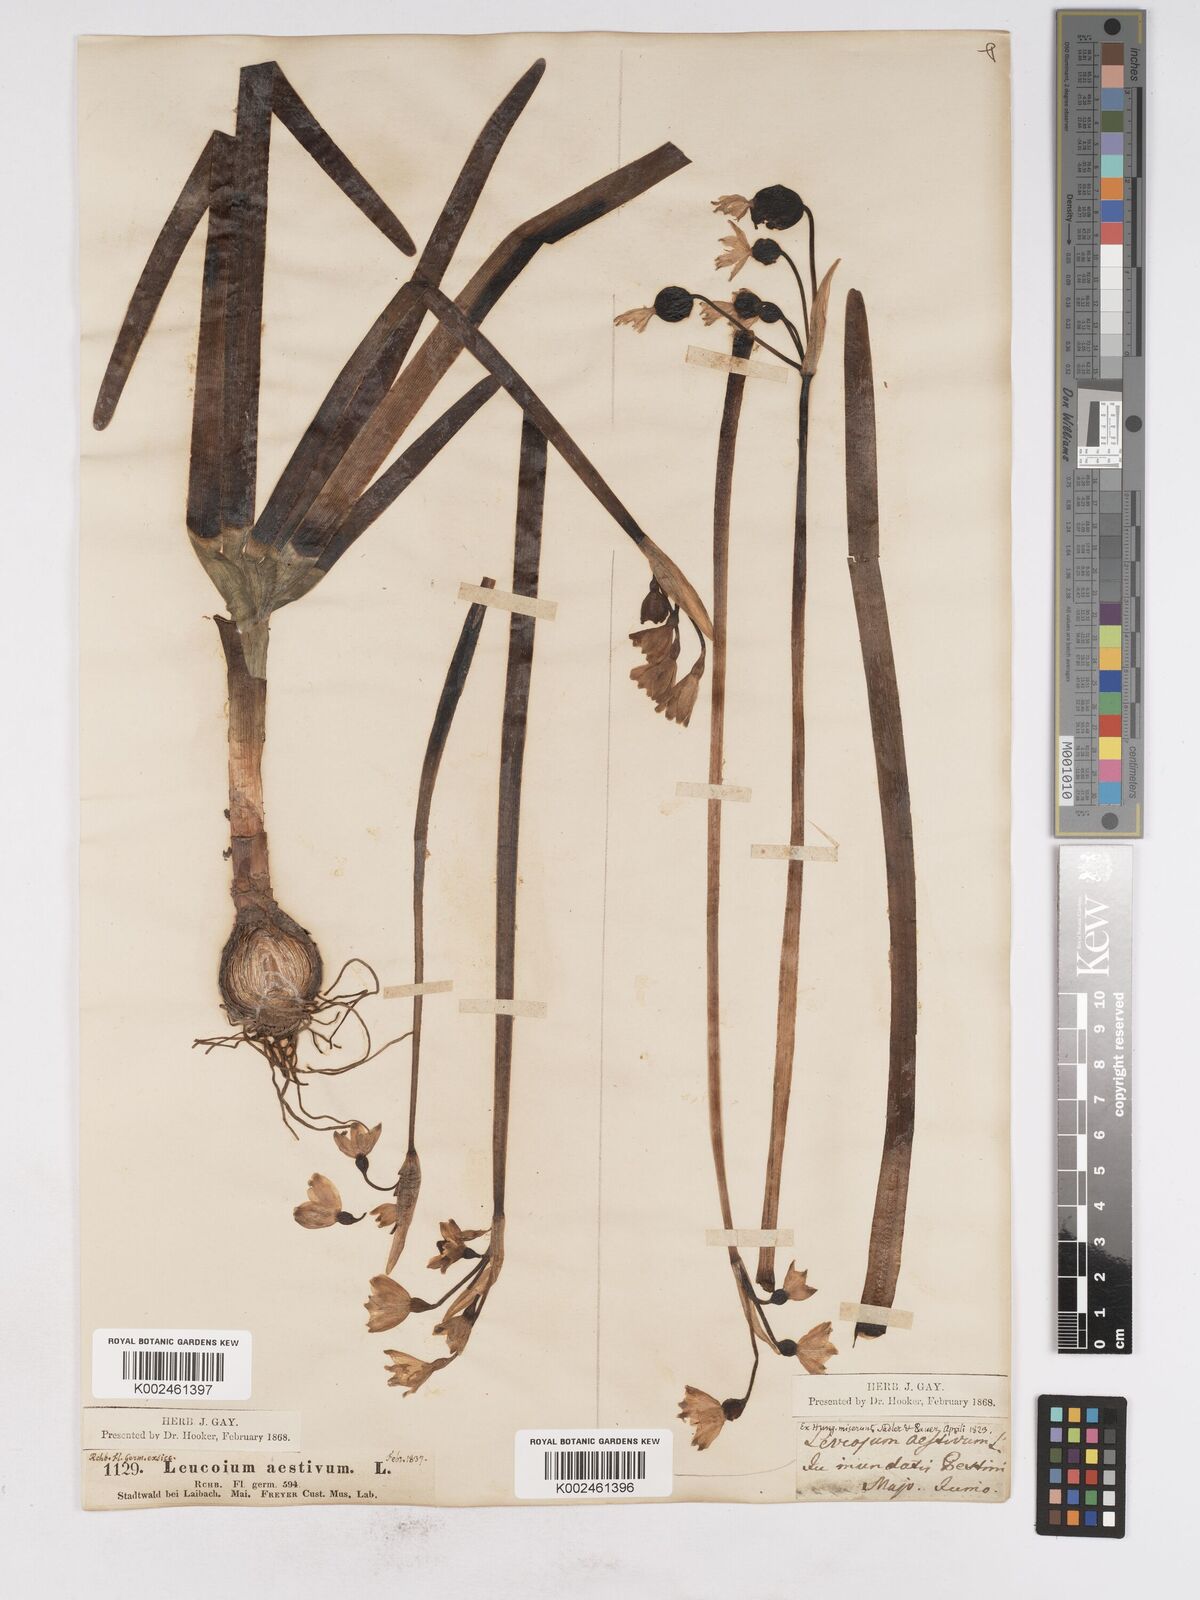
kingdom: Plantae
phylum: Tracheophyta
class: Liliopsida
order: Asparagales
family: Amaryllidaceae
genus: Leucojum
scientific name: Leucojum aestivum
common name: Summer snowflake
